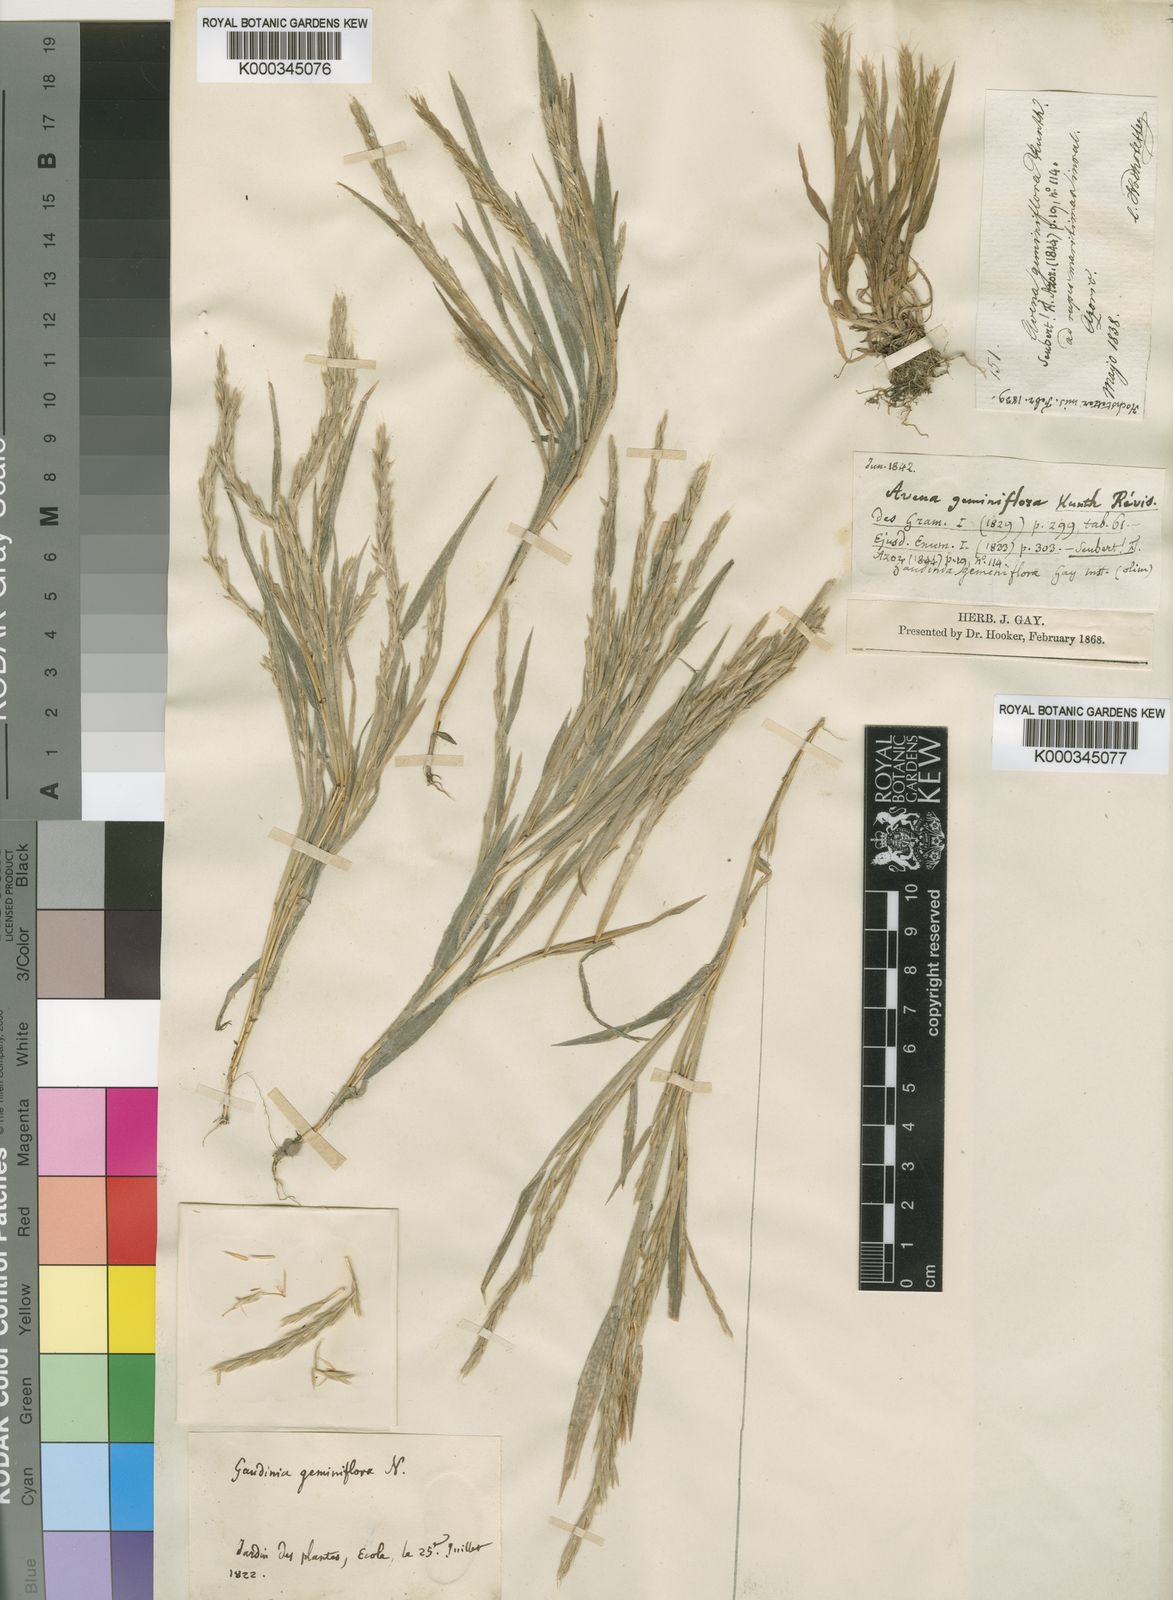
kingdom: Plantae
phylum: Tracheophyta
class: Liliopsida
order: Poales
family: Poaceae
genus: Gaudinia
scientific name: Gaudinia coarctata
